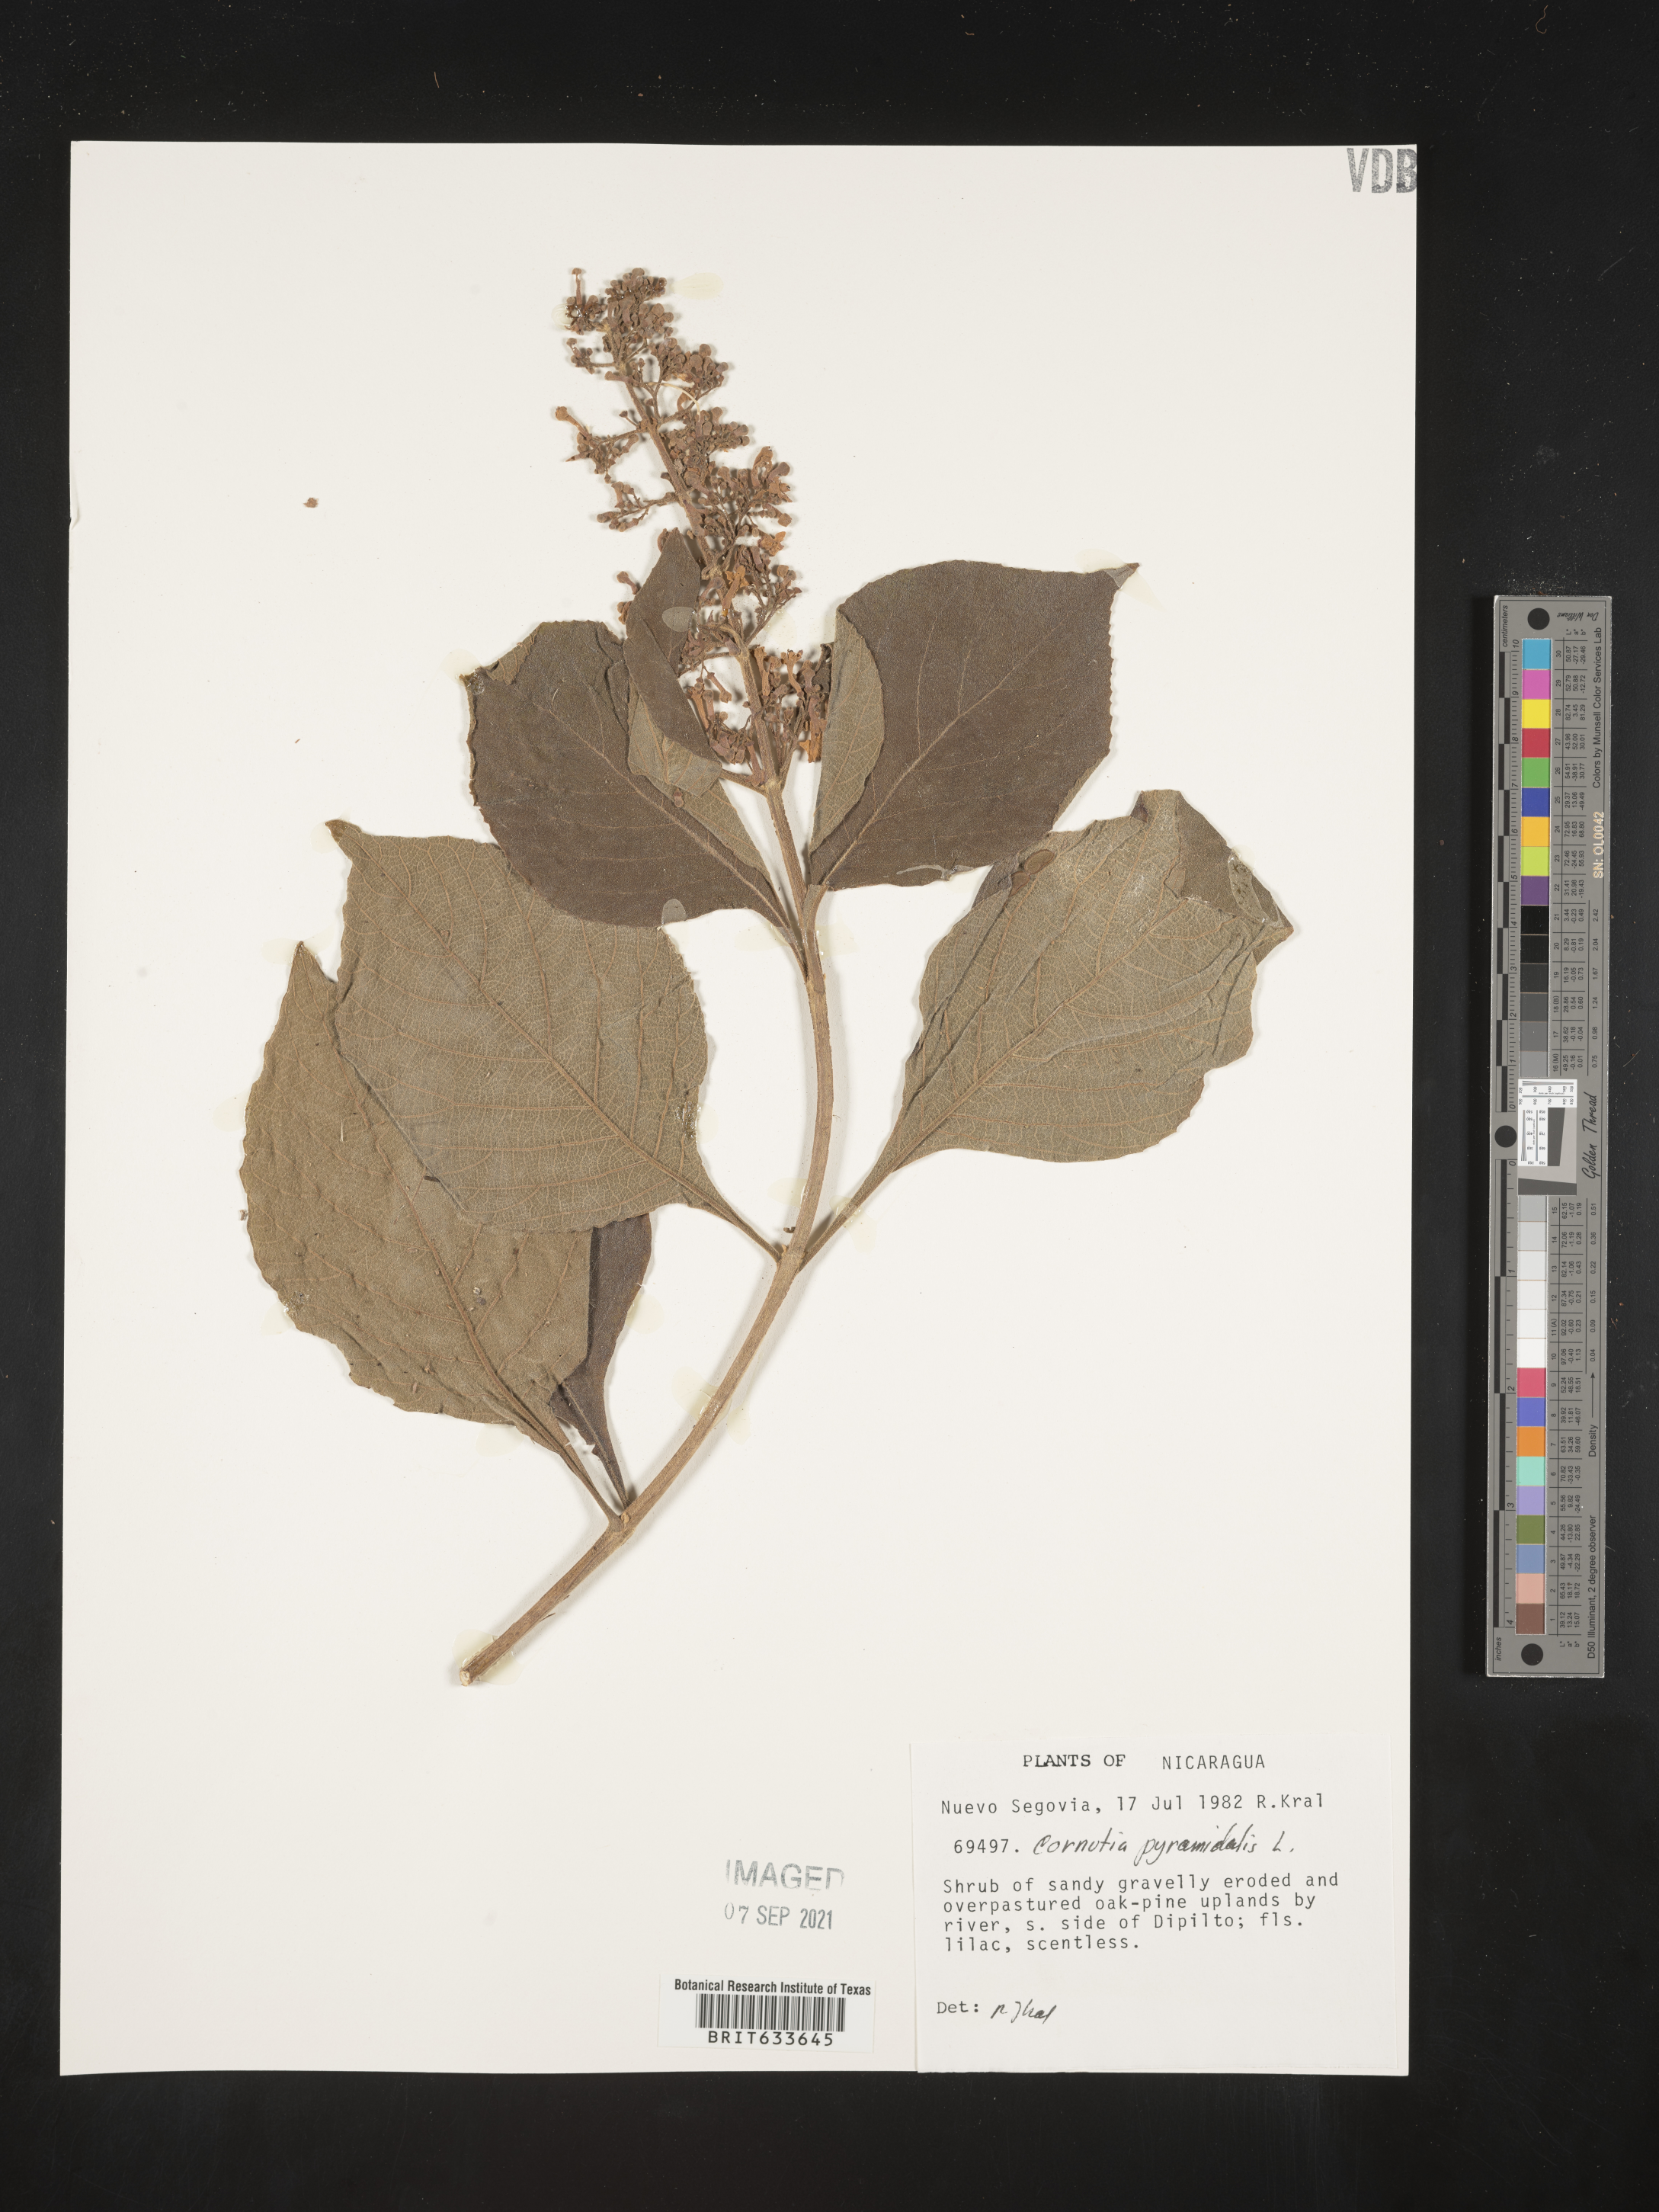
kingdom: Plantae
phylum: Tracheophyta
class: Magnoliopsida
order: Lamiales
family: Lamiaceae
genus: Cornutia
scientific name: Cornutia
